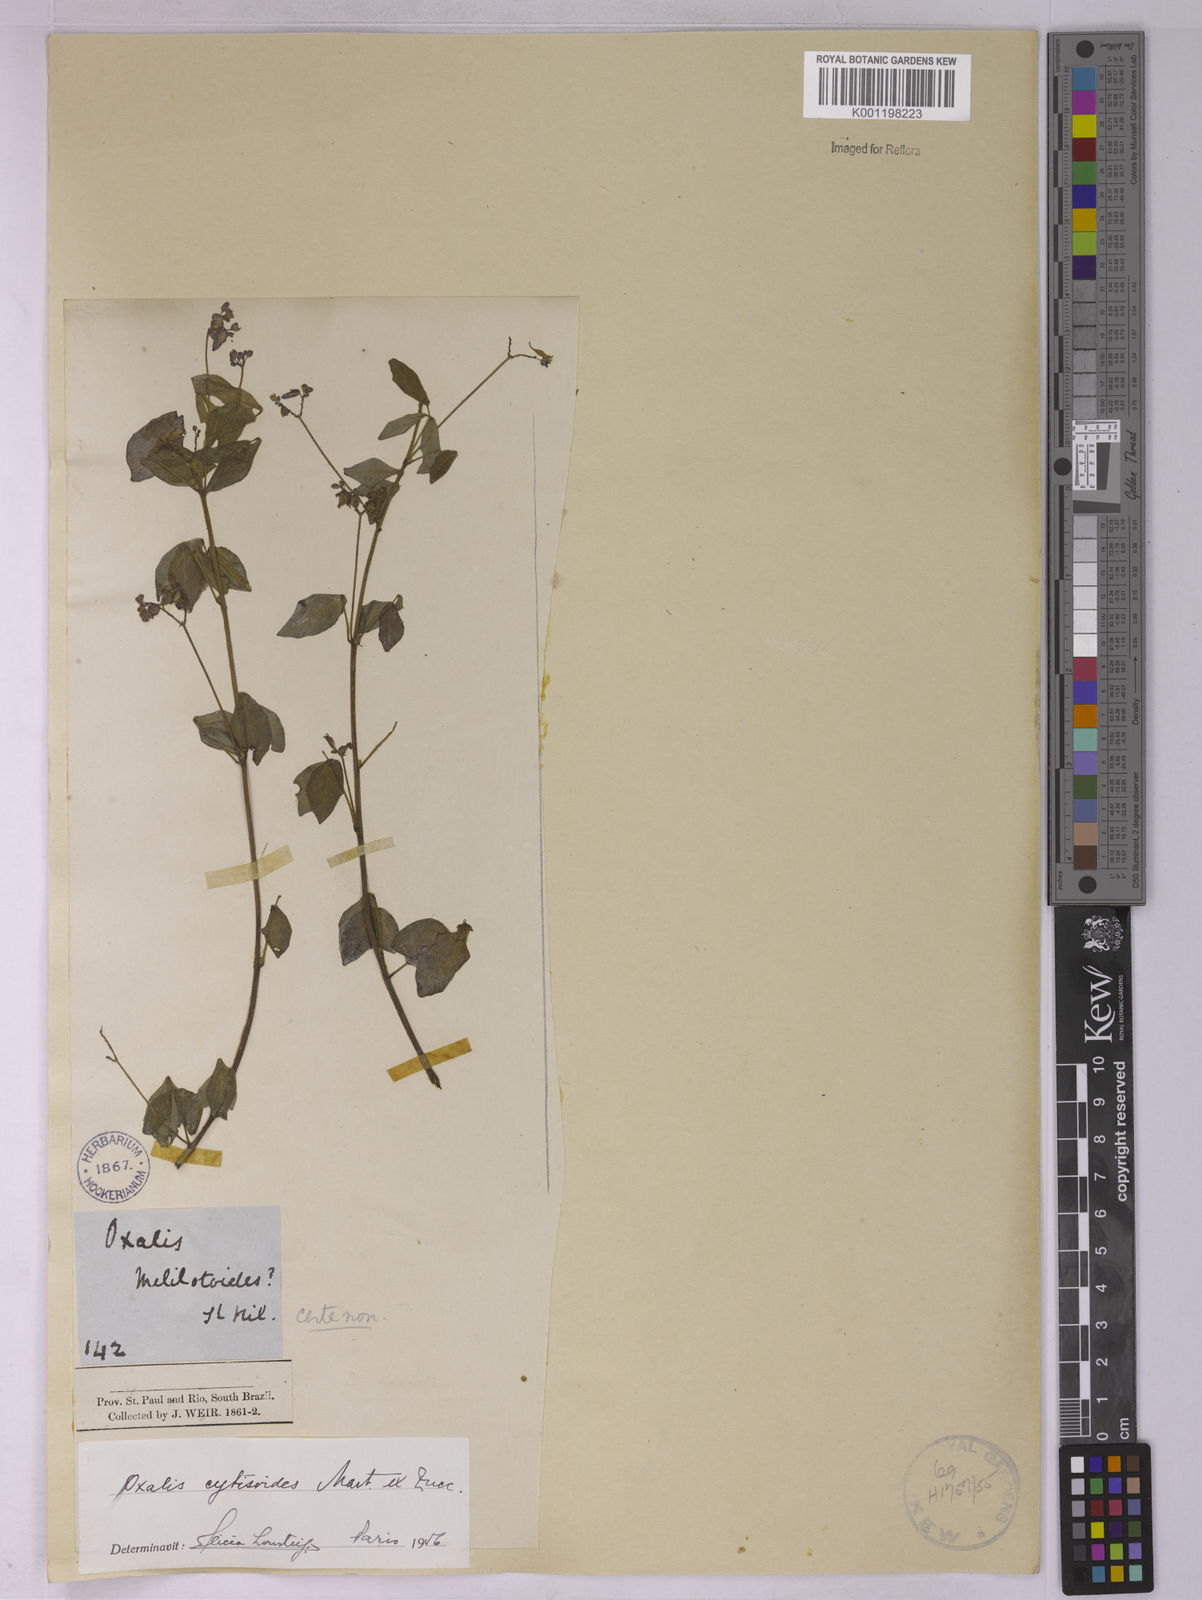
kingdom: Plantae
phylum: Tracheophyta
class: Magnoliopsida
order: Oxalidales
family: Oxalidaceae
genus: Oxalis
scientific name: Oxalis cytisoides
